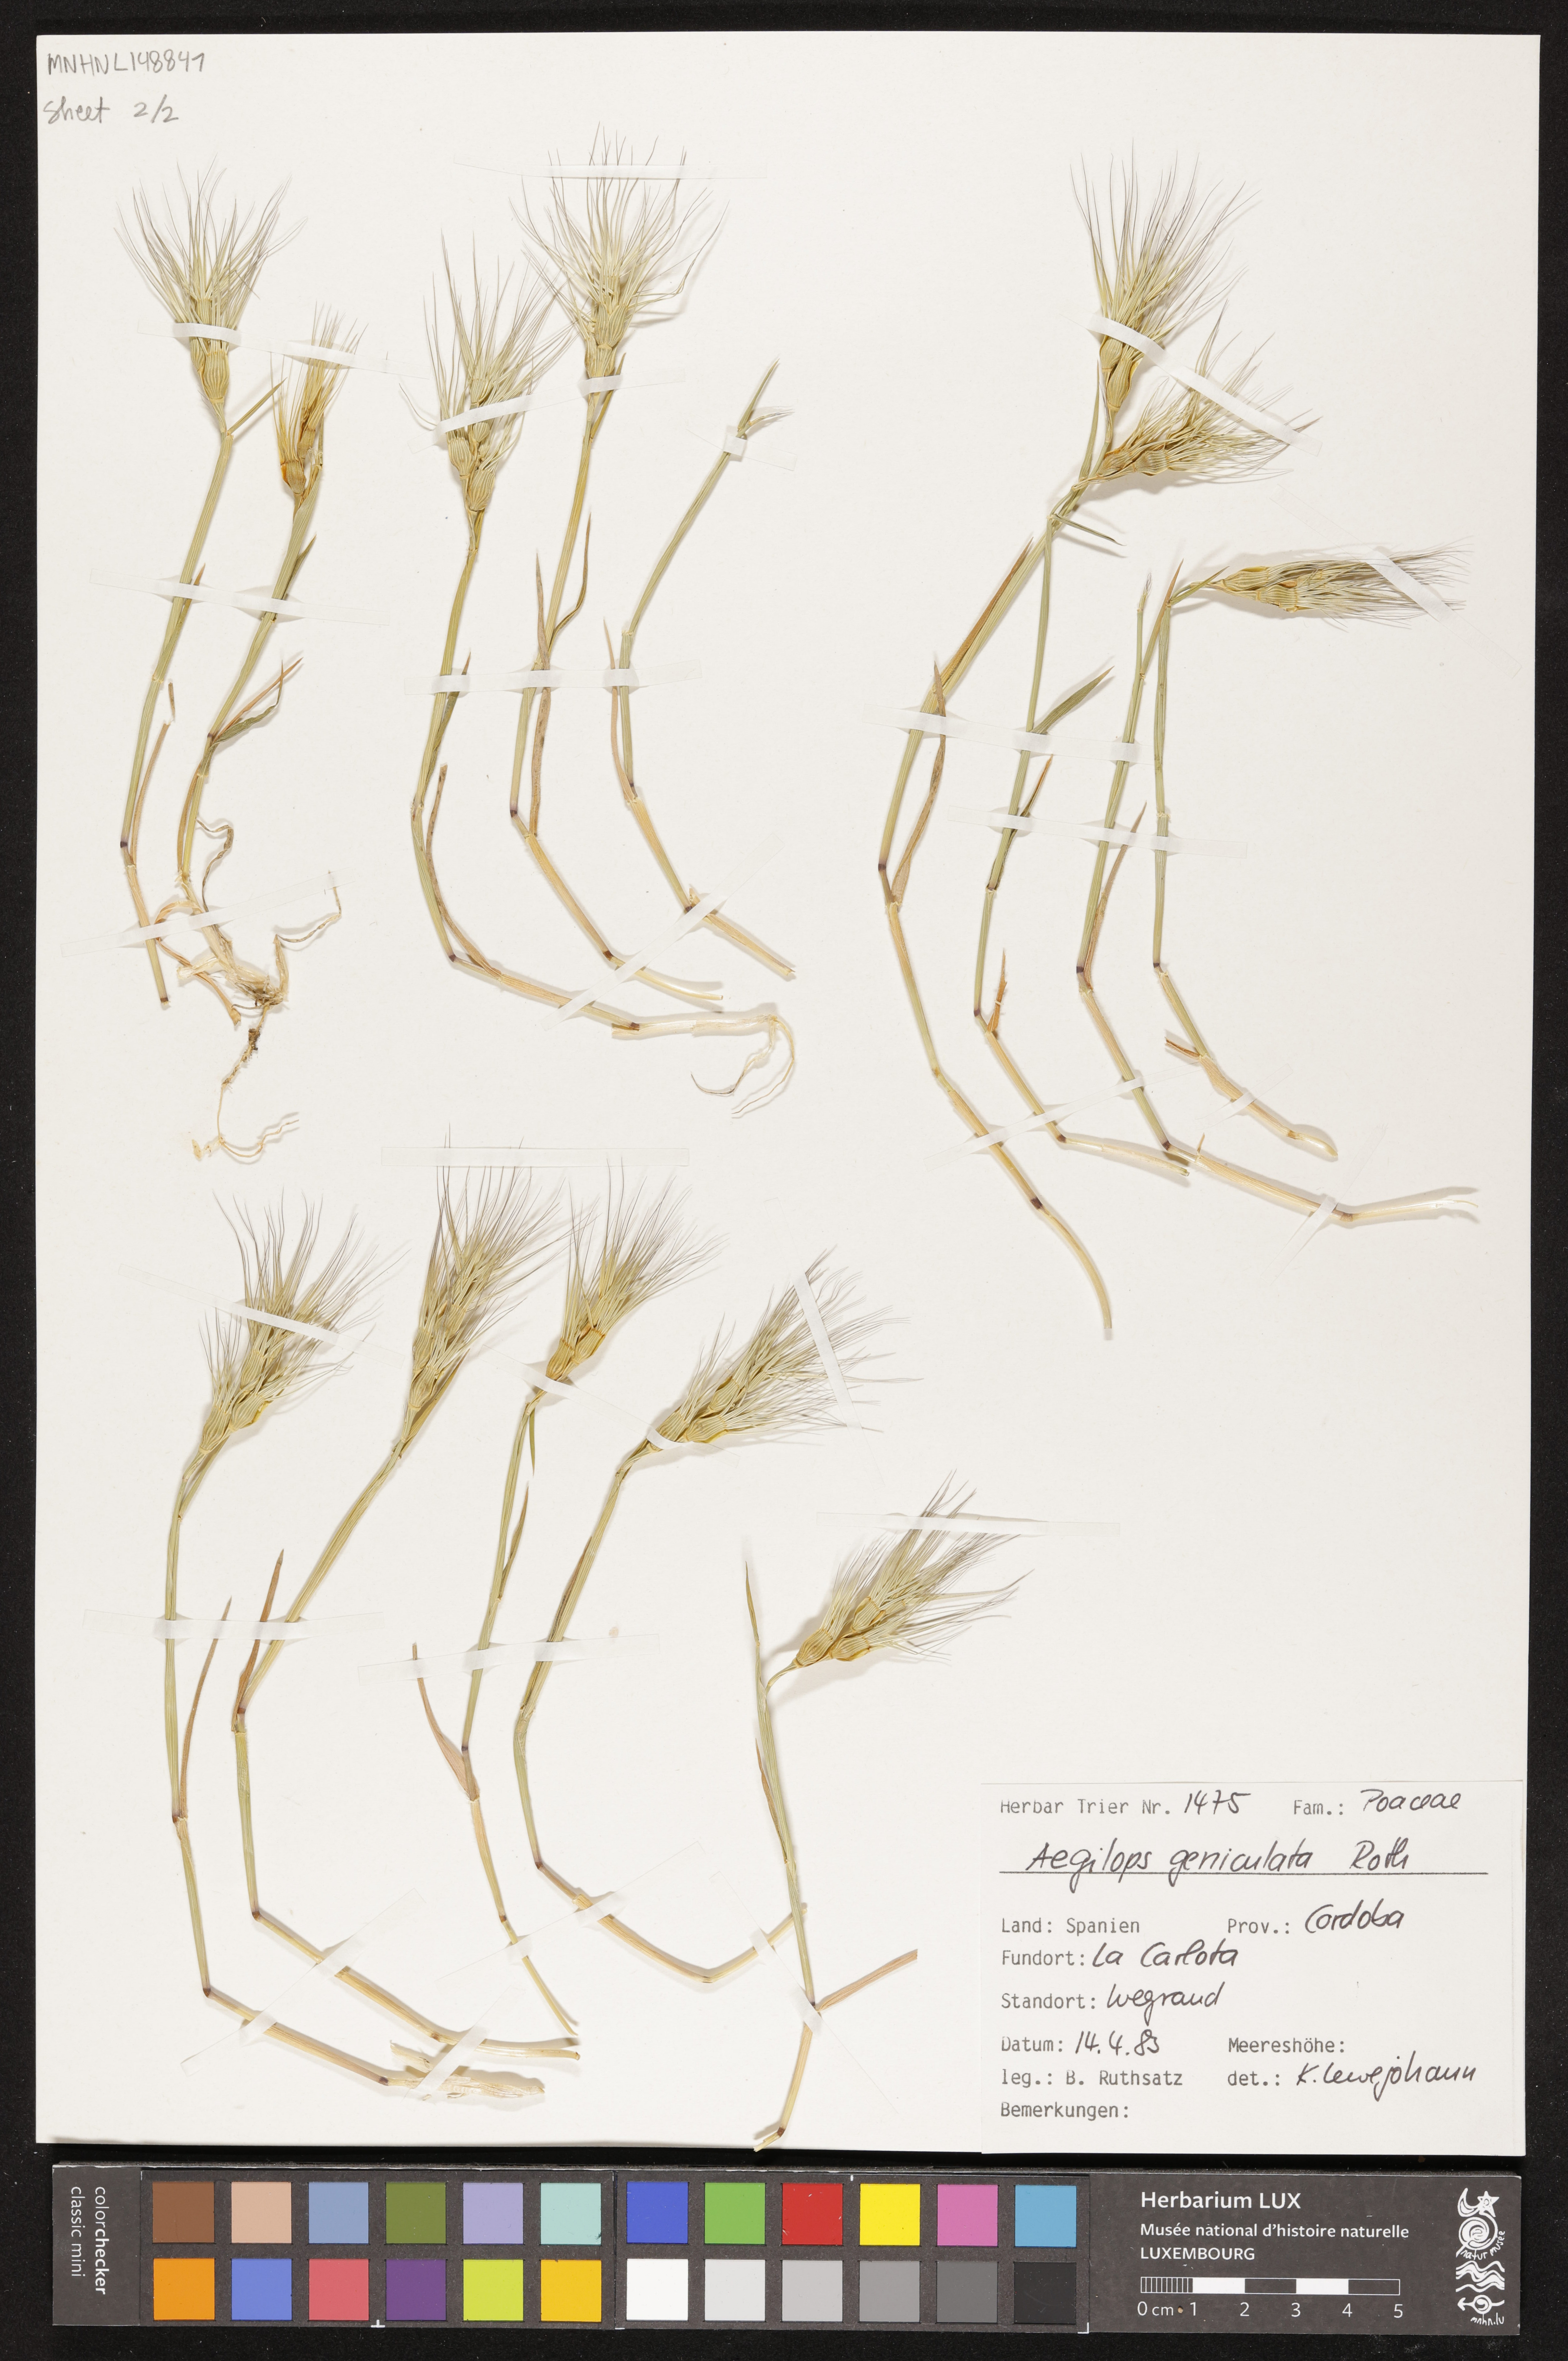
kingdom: Plantae
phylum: Tracheophyta
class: Liliopsida
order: Poales
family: Poaceae
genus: Aegilops
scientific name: Aegilops geniculata
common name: Ovate goat grass
